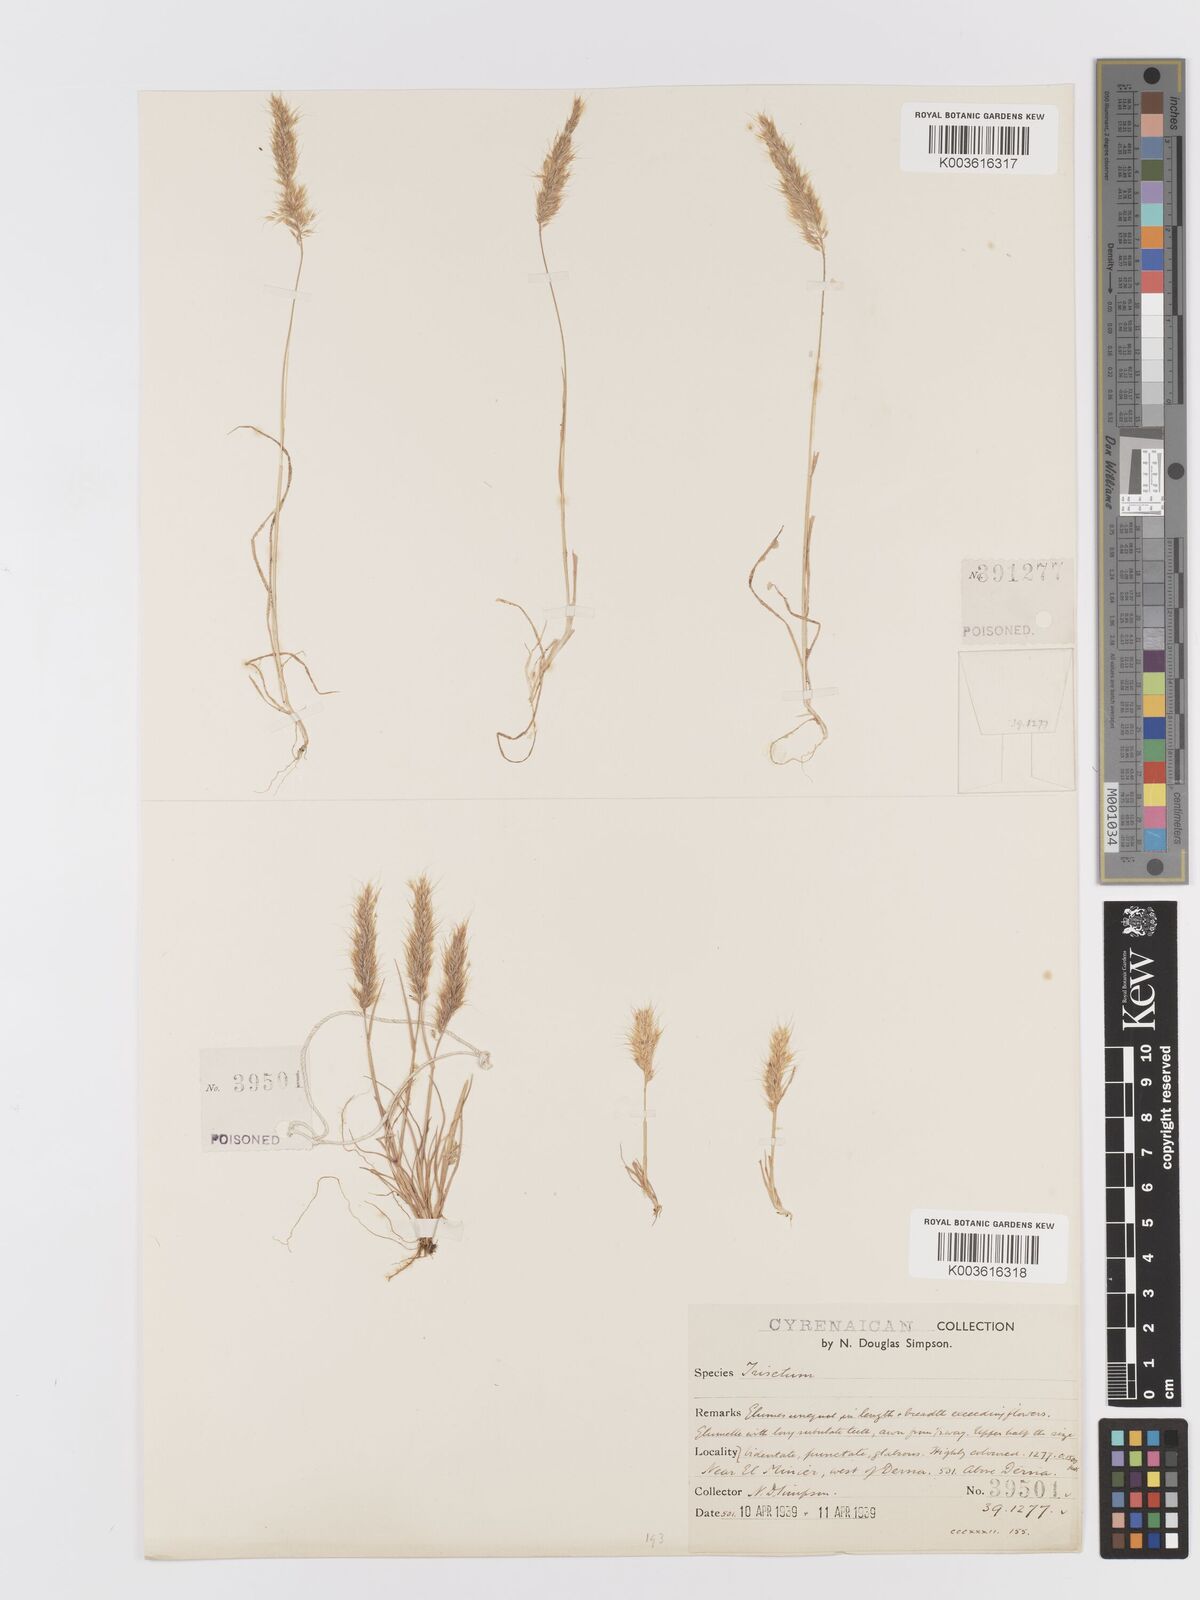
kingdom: Plantae
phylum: Tracheophyta
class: Liliopsida
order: Poales
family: Poaceae
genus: Trisetaria
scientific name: Trisetaria
